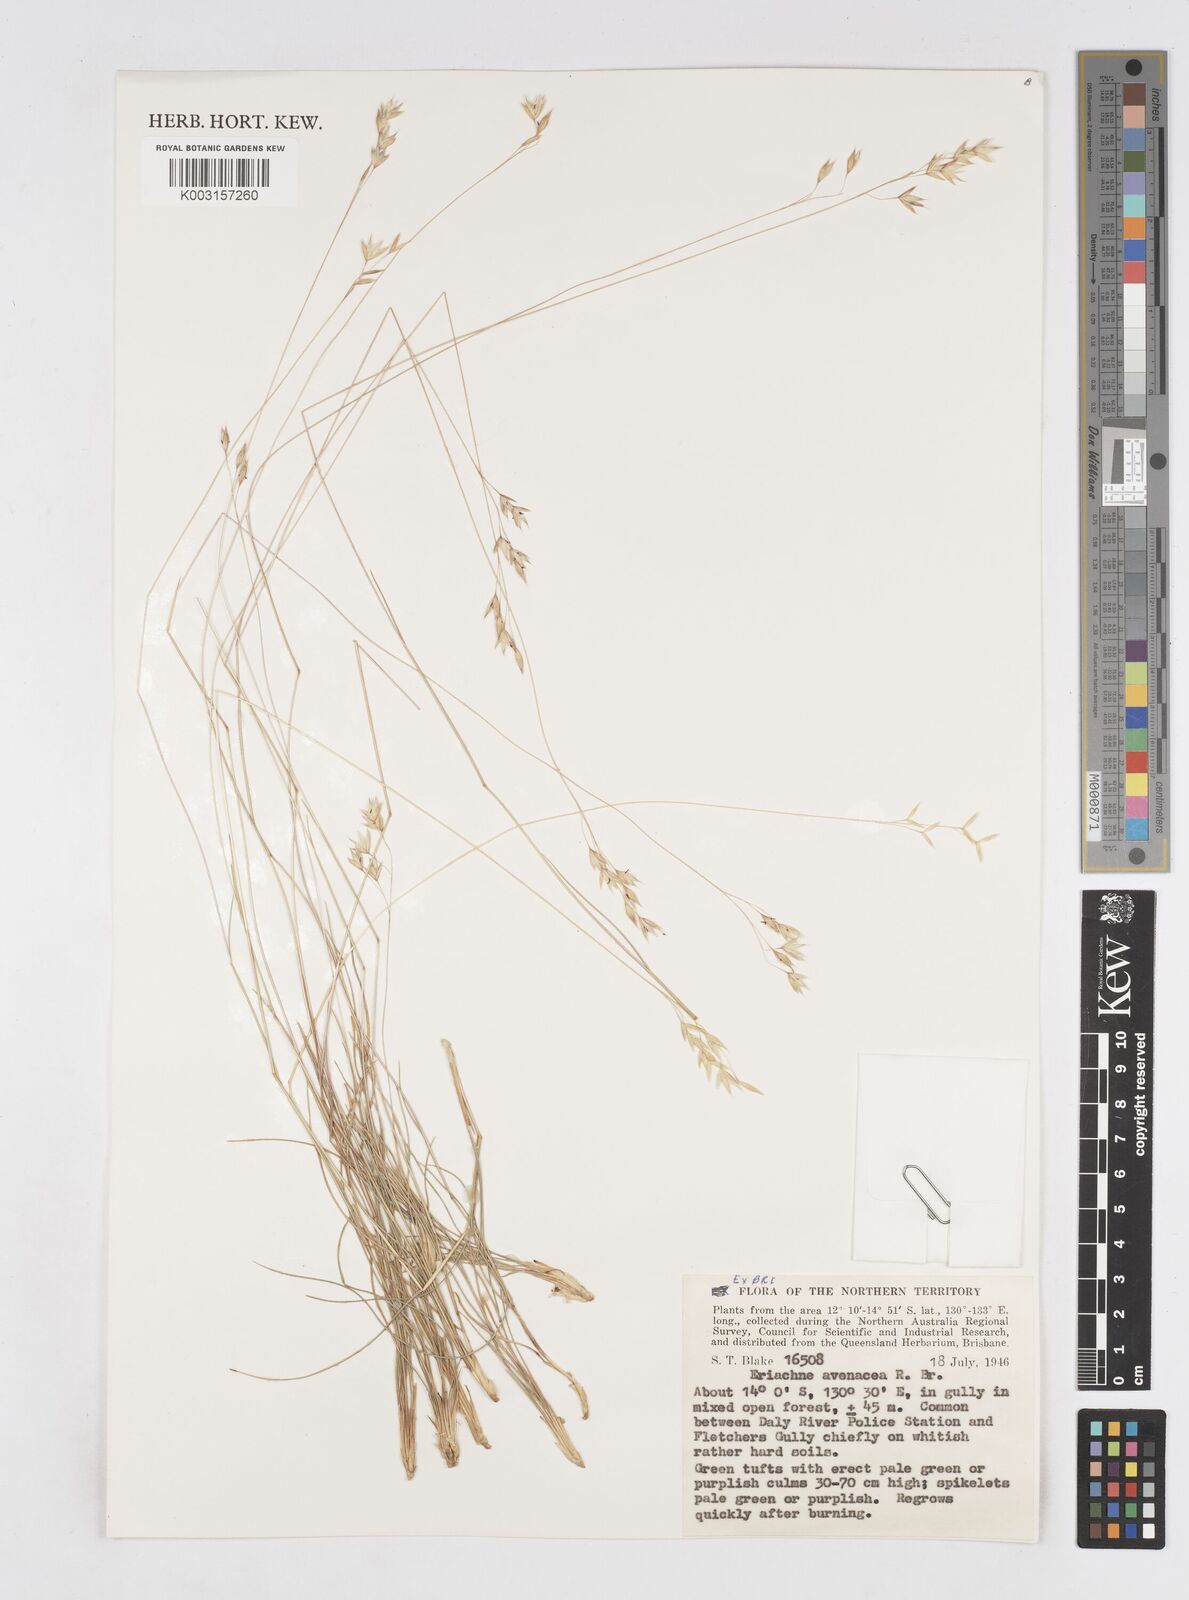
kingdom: Plantae
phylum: Tracheophyta
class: Liliopsida
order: Poales
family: Poaceae
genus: Eriachne
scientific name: Eriachne avenacea
